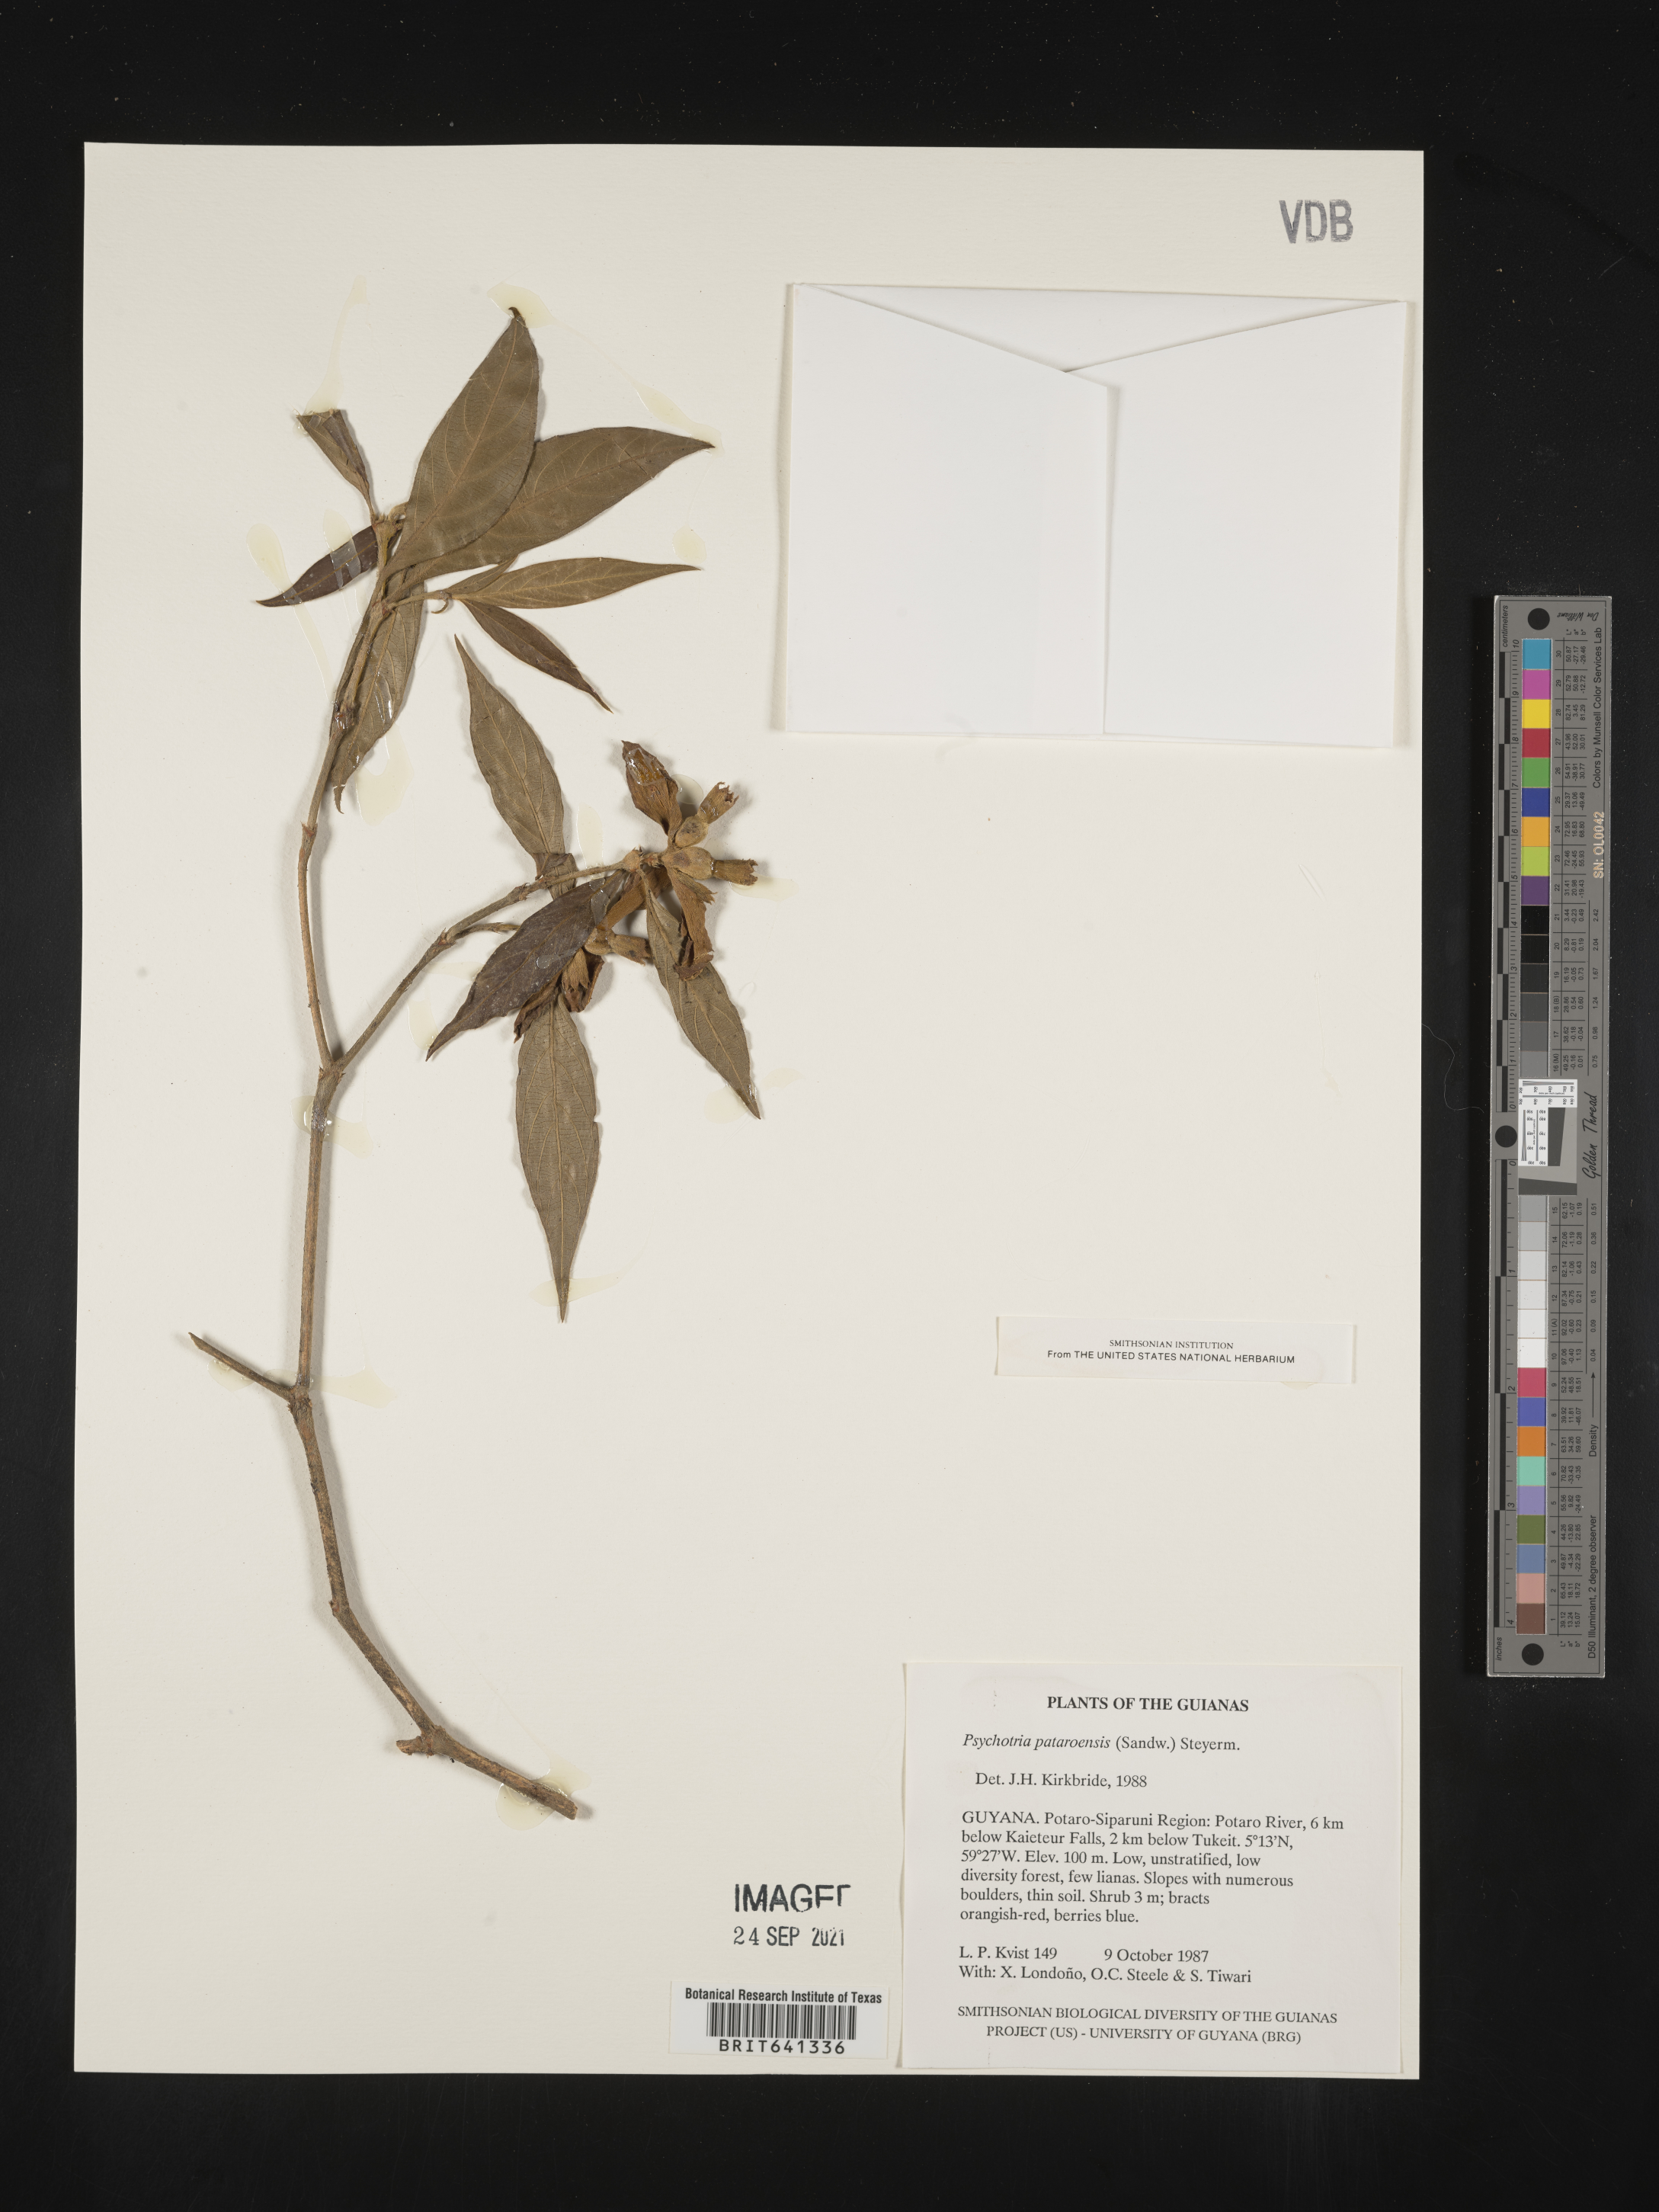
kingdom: Plantae
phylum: Tracheophyta
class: Magnoliopsida
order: Gentianales
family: Rubiaceae
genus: Psychotria
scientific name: Psychotria
